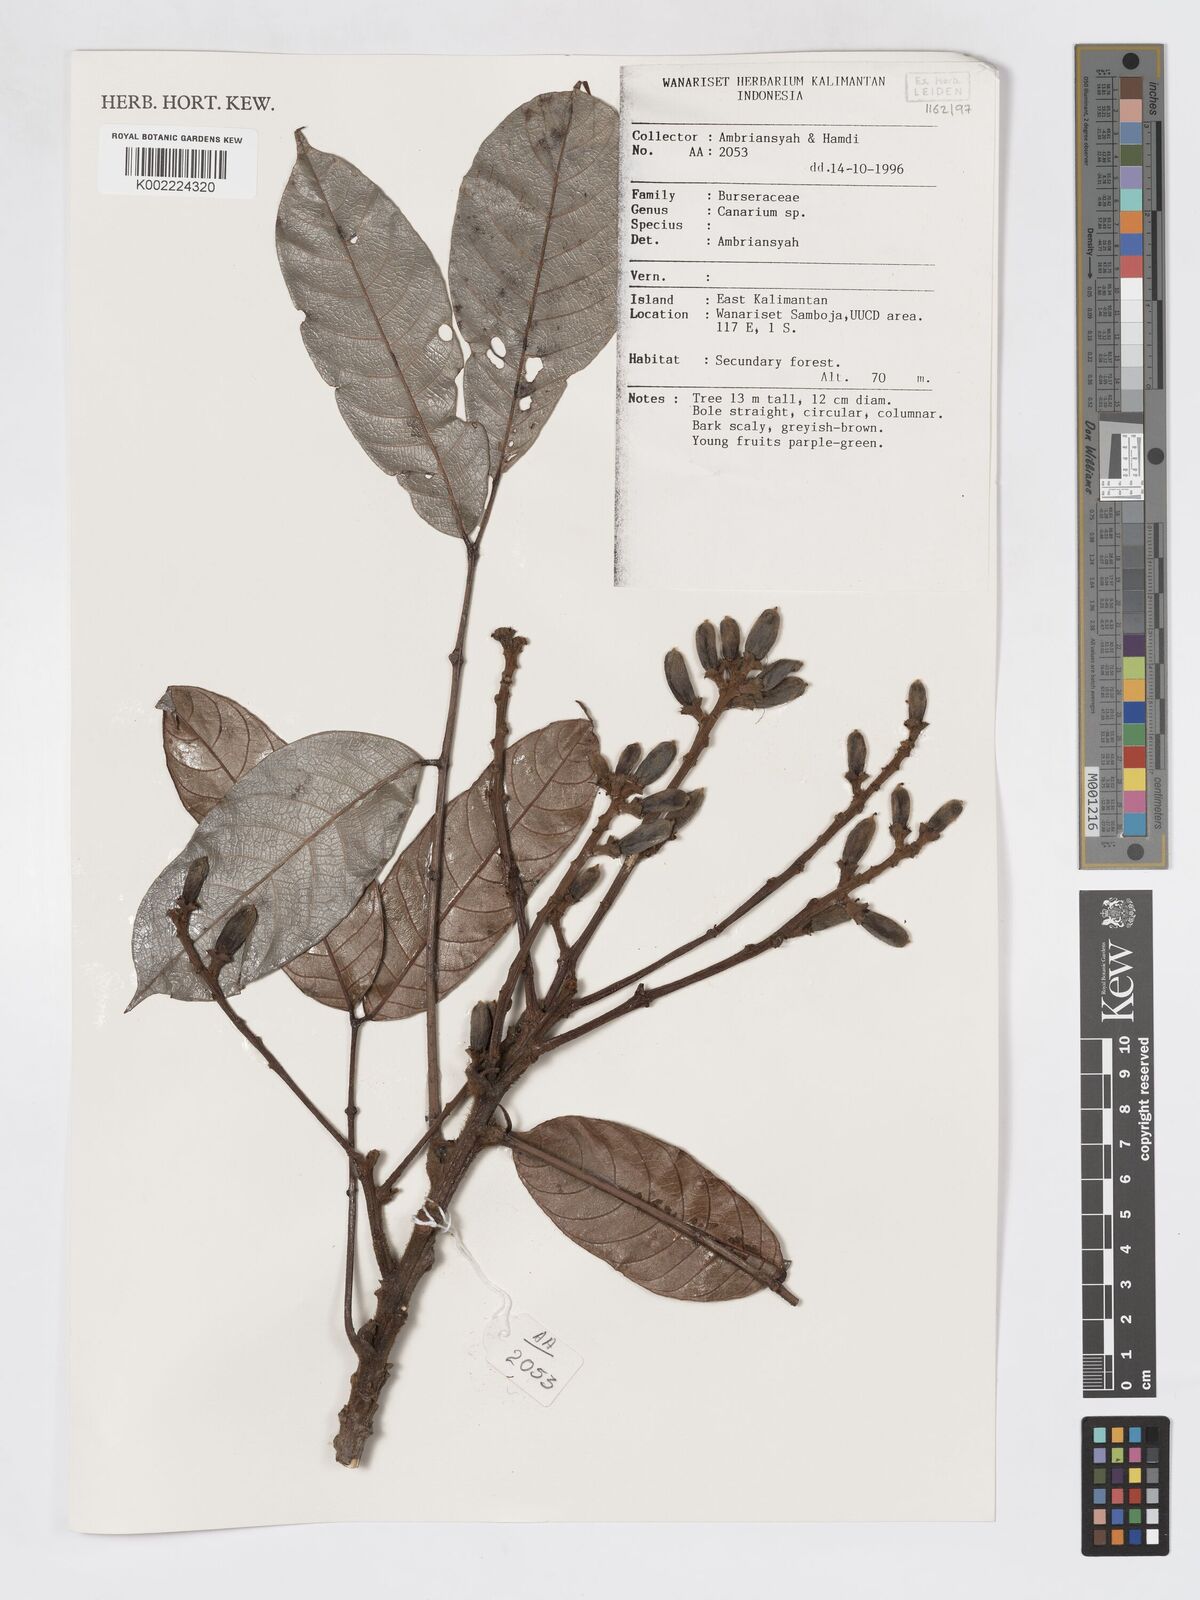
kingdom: Plantae
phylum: Tracheophyta
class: Magnoliopsida
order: Sapindales
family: Burseraceae
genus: Canarium
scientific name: Canarium
